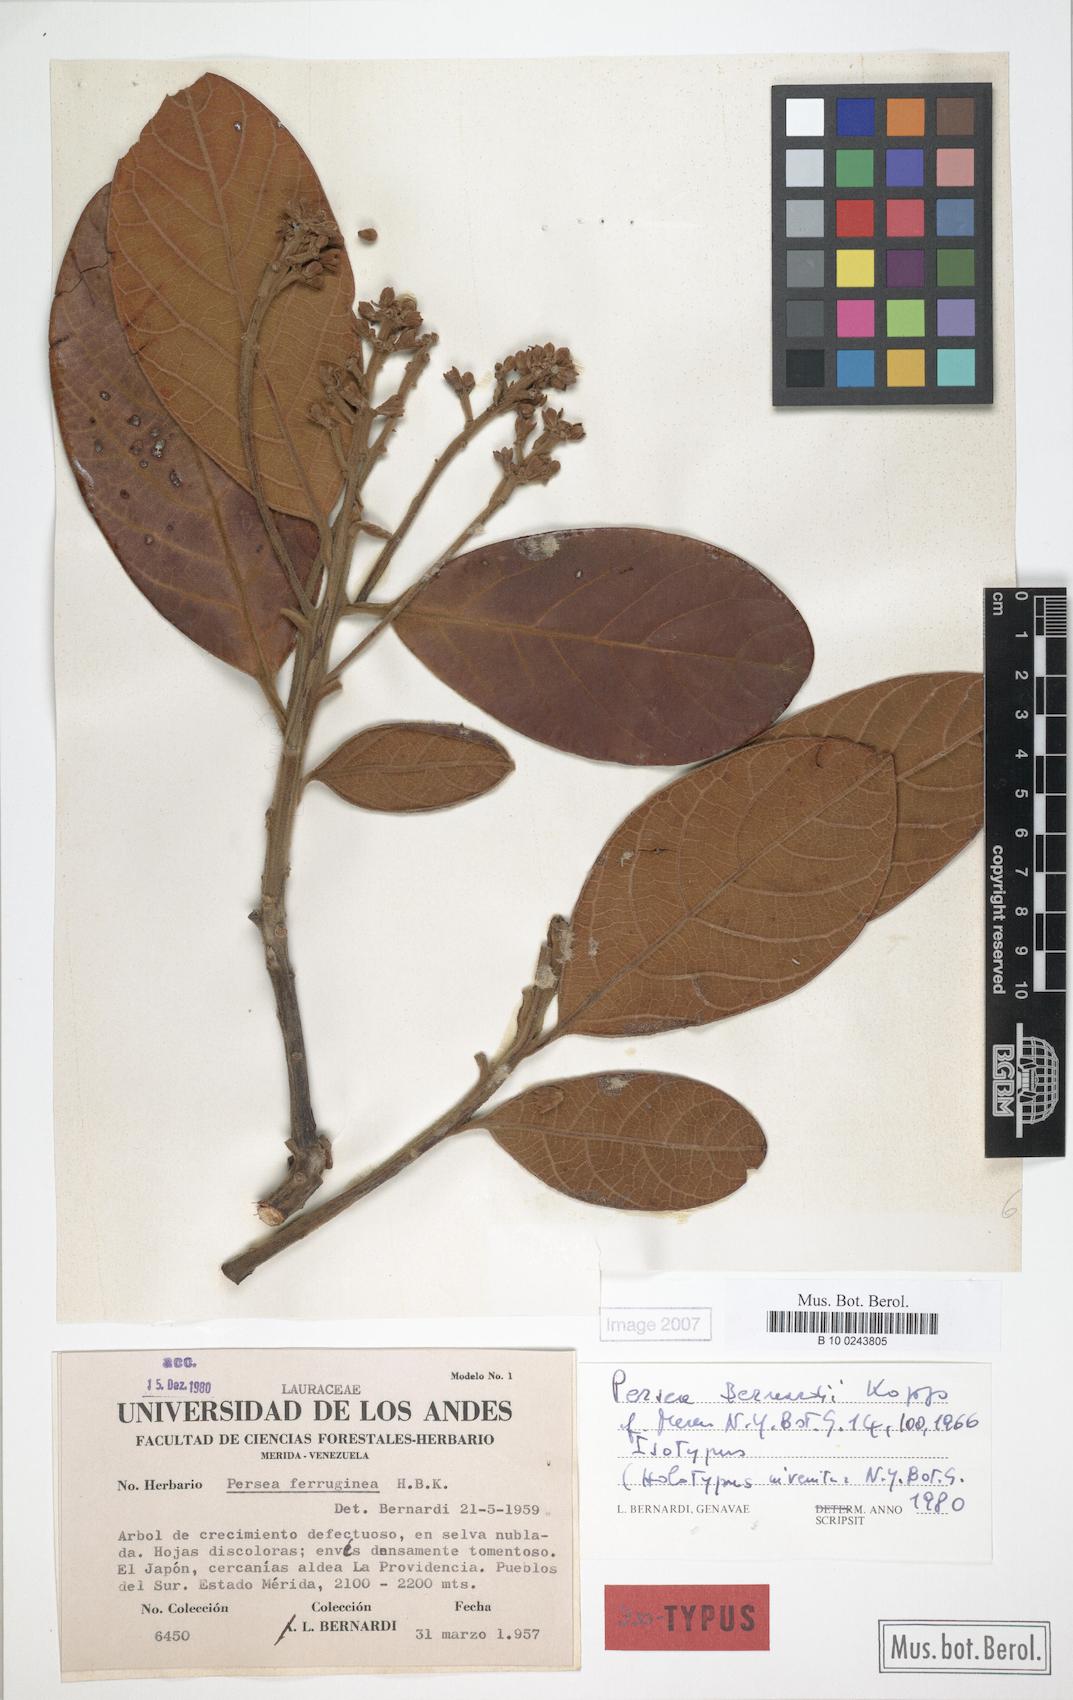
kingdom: Plantae
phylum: Tracheophyta
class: Magnoliopsida
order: Laurales
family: Lauraceae
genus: Persea
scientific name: Persea bernardii
